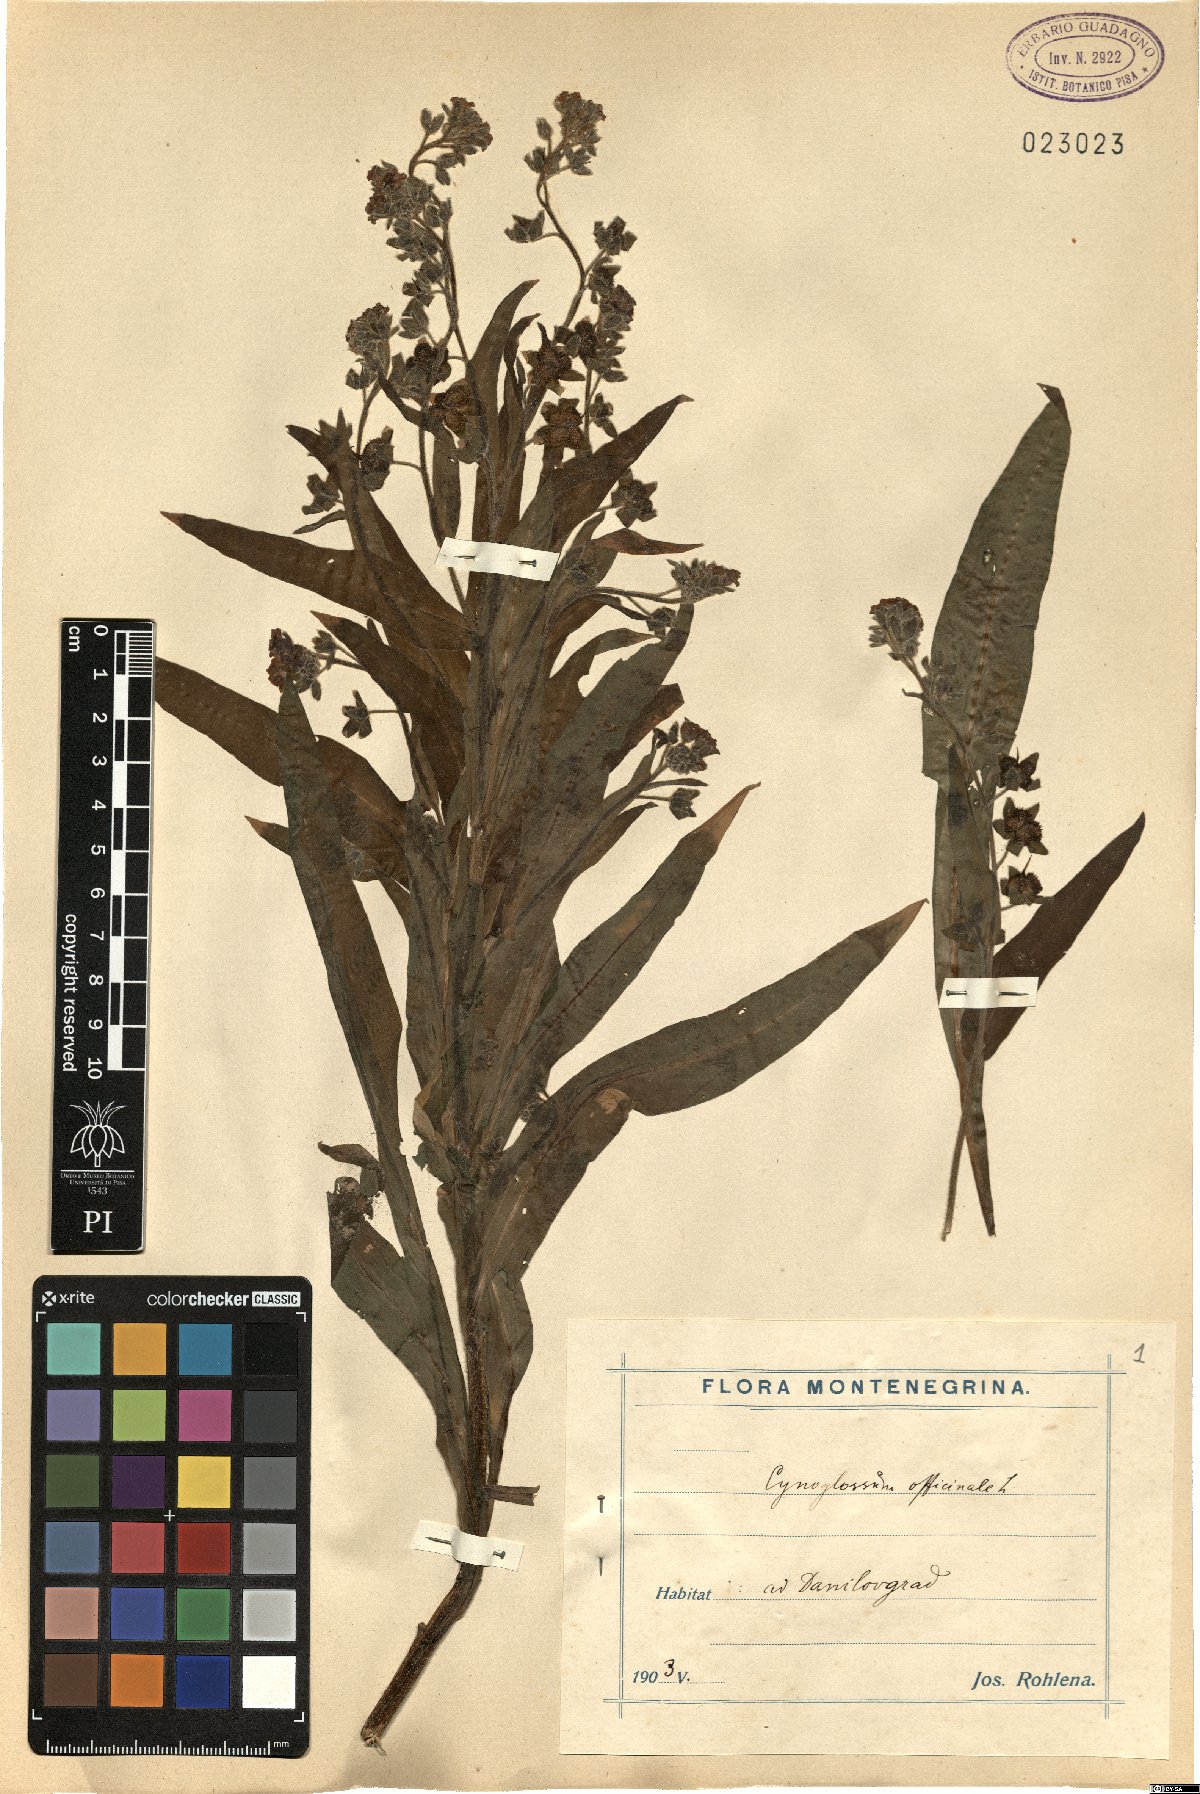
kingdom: Plantae
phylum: Tracheophyta
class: Magnoliopsida
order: Boraginales
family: Boraginaceae
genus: Cynoglossum
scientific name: Cynoglossum officinale
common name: Hound's-tongue
